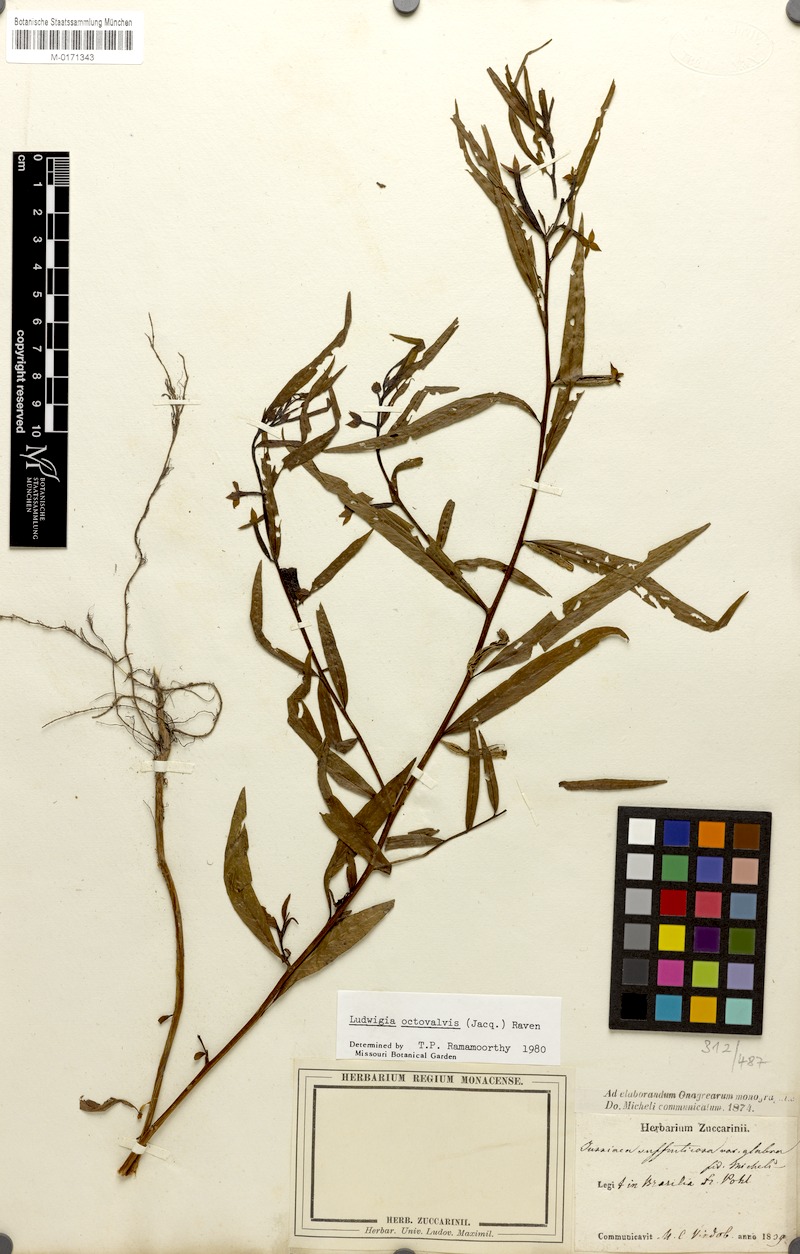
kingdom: Plantae
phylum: Tracheophyta
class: Magnoliopsida
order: Myrtales
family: Onagraceae
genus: Ludwigia
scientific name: Ludwigia octovalvis
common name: Water-primrose
